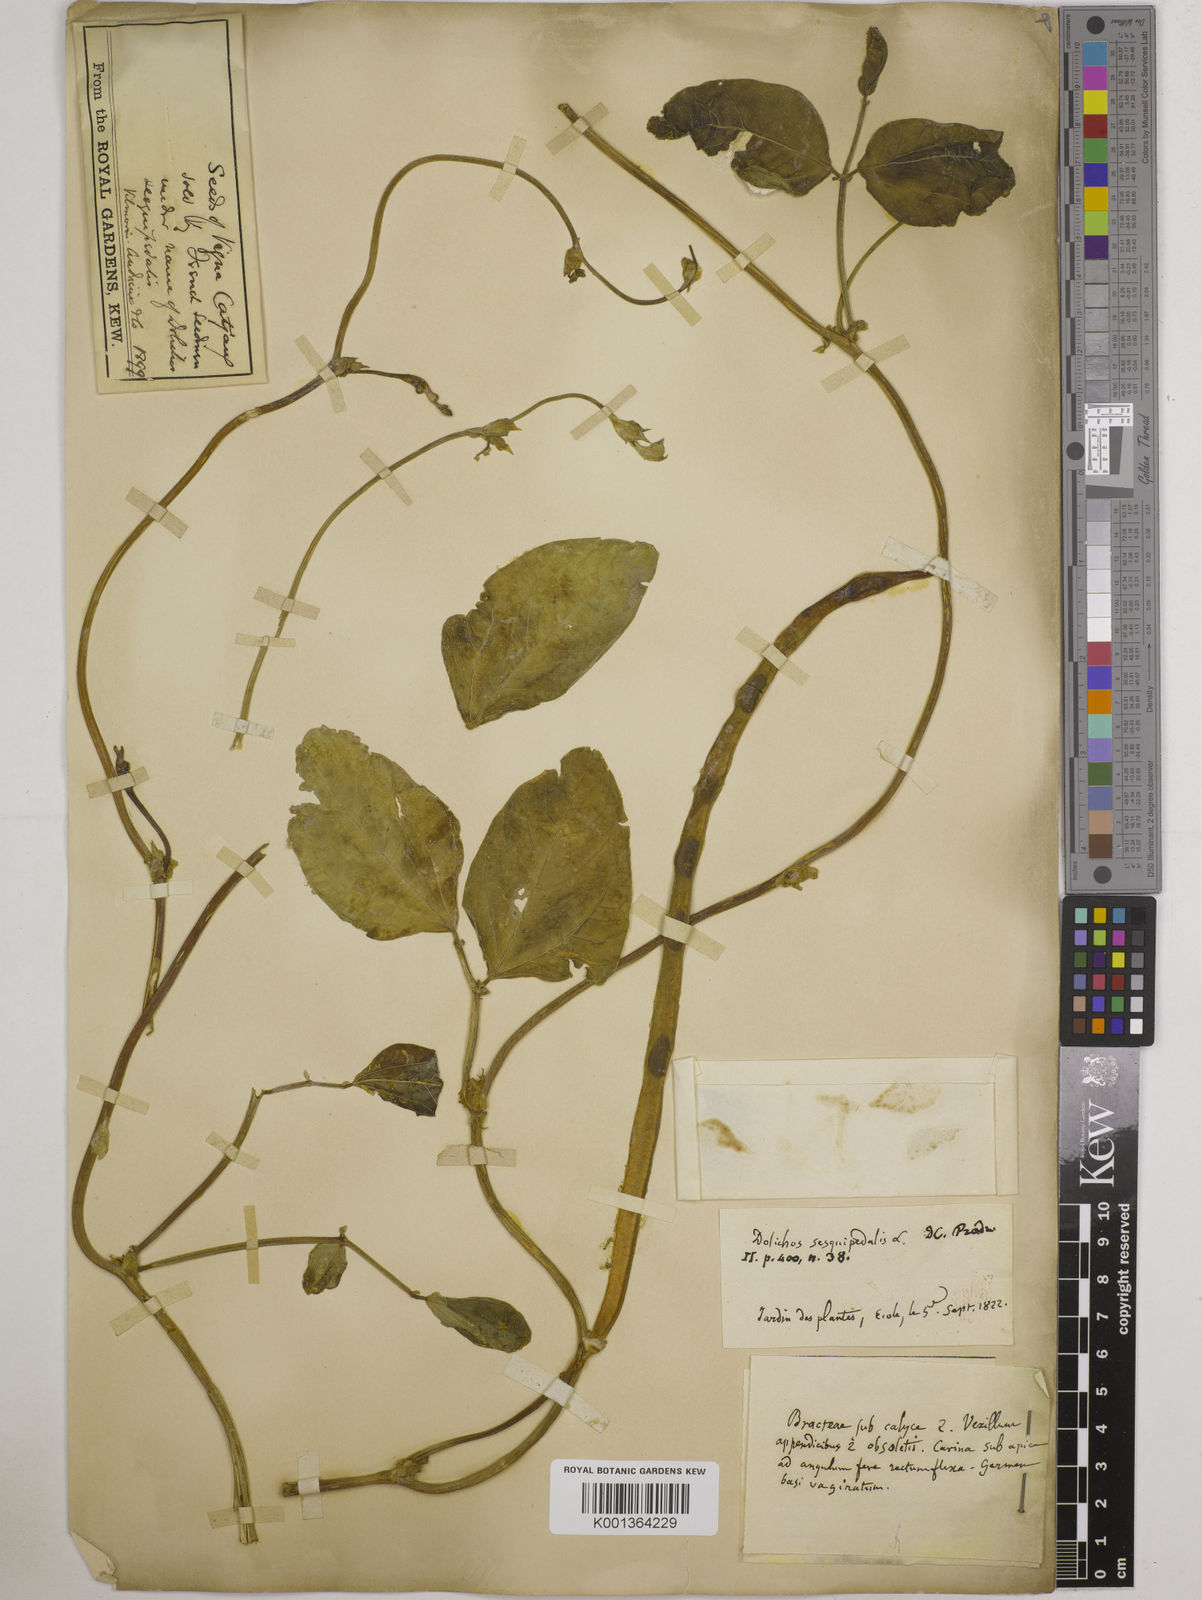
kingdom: Plantae
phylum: Tracheophyta
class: Magnoliopsida
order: Fabales
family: Fabaceae
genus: Vigna
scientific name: Vigna unguiculata
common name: Cowpea
